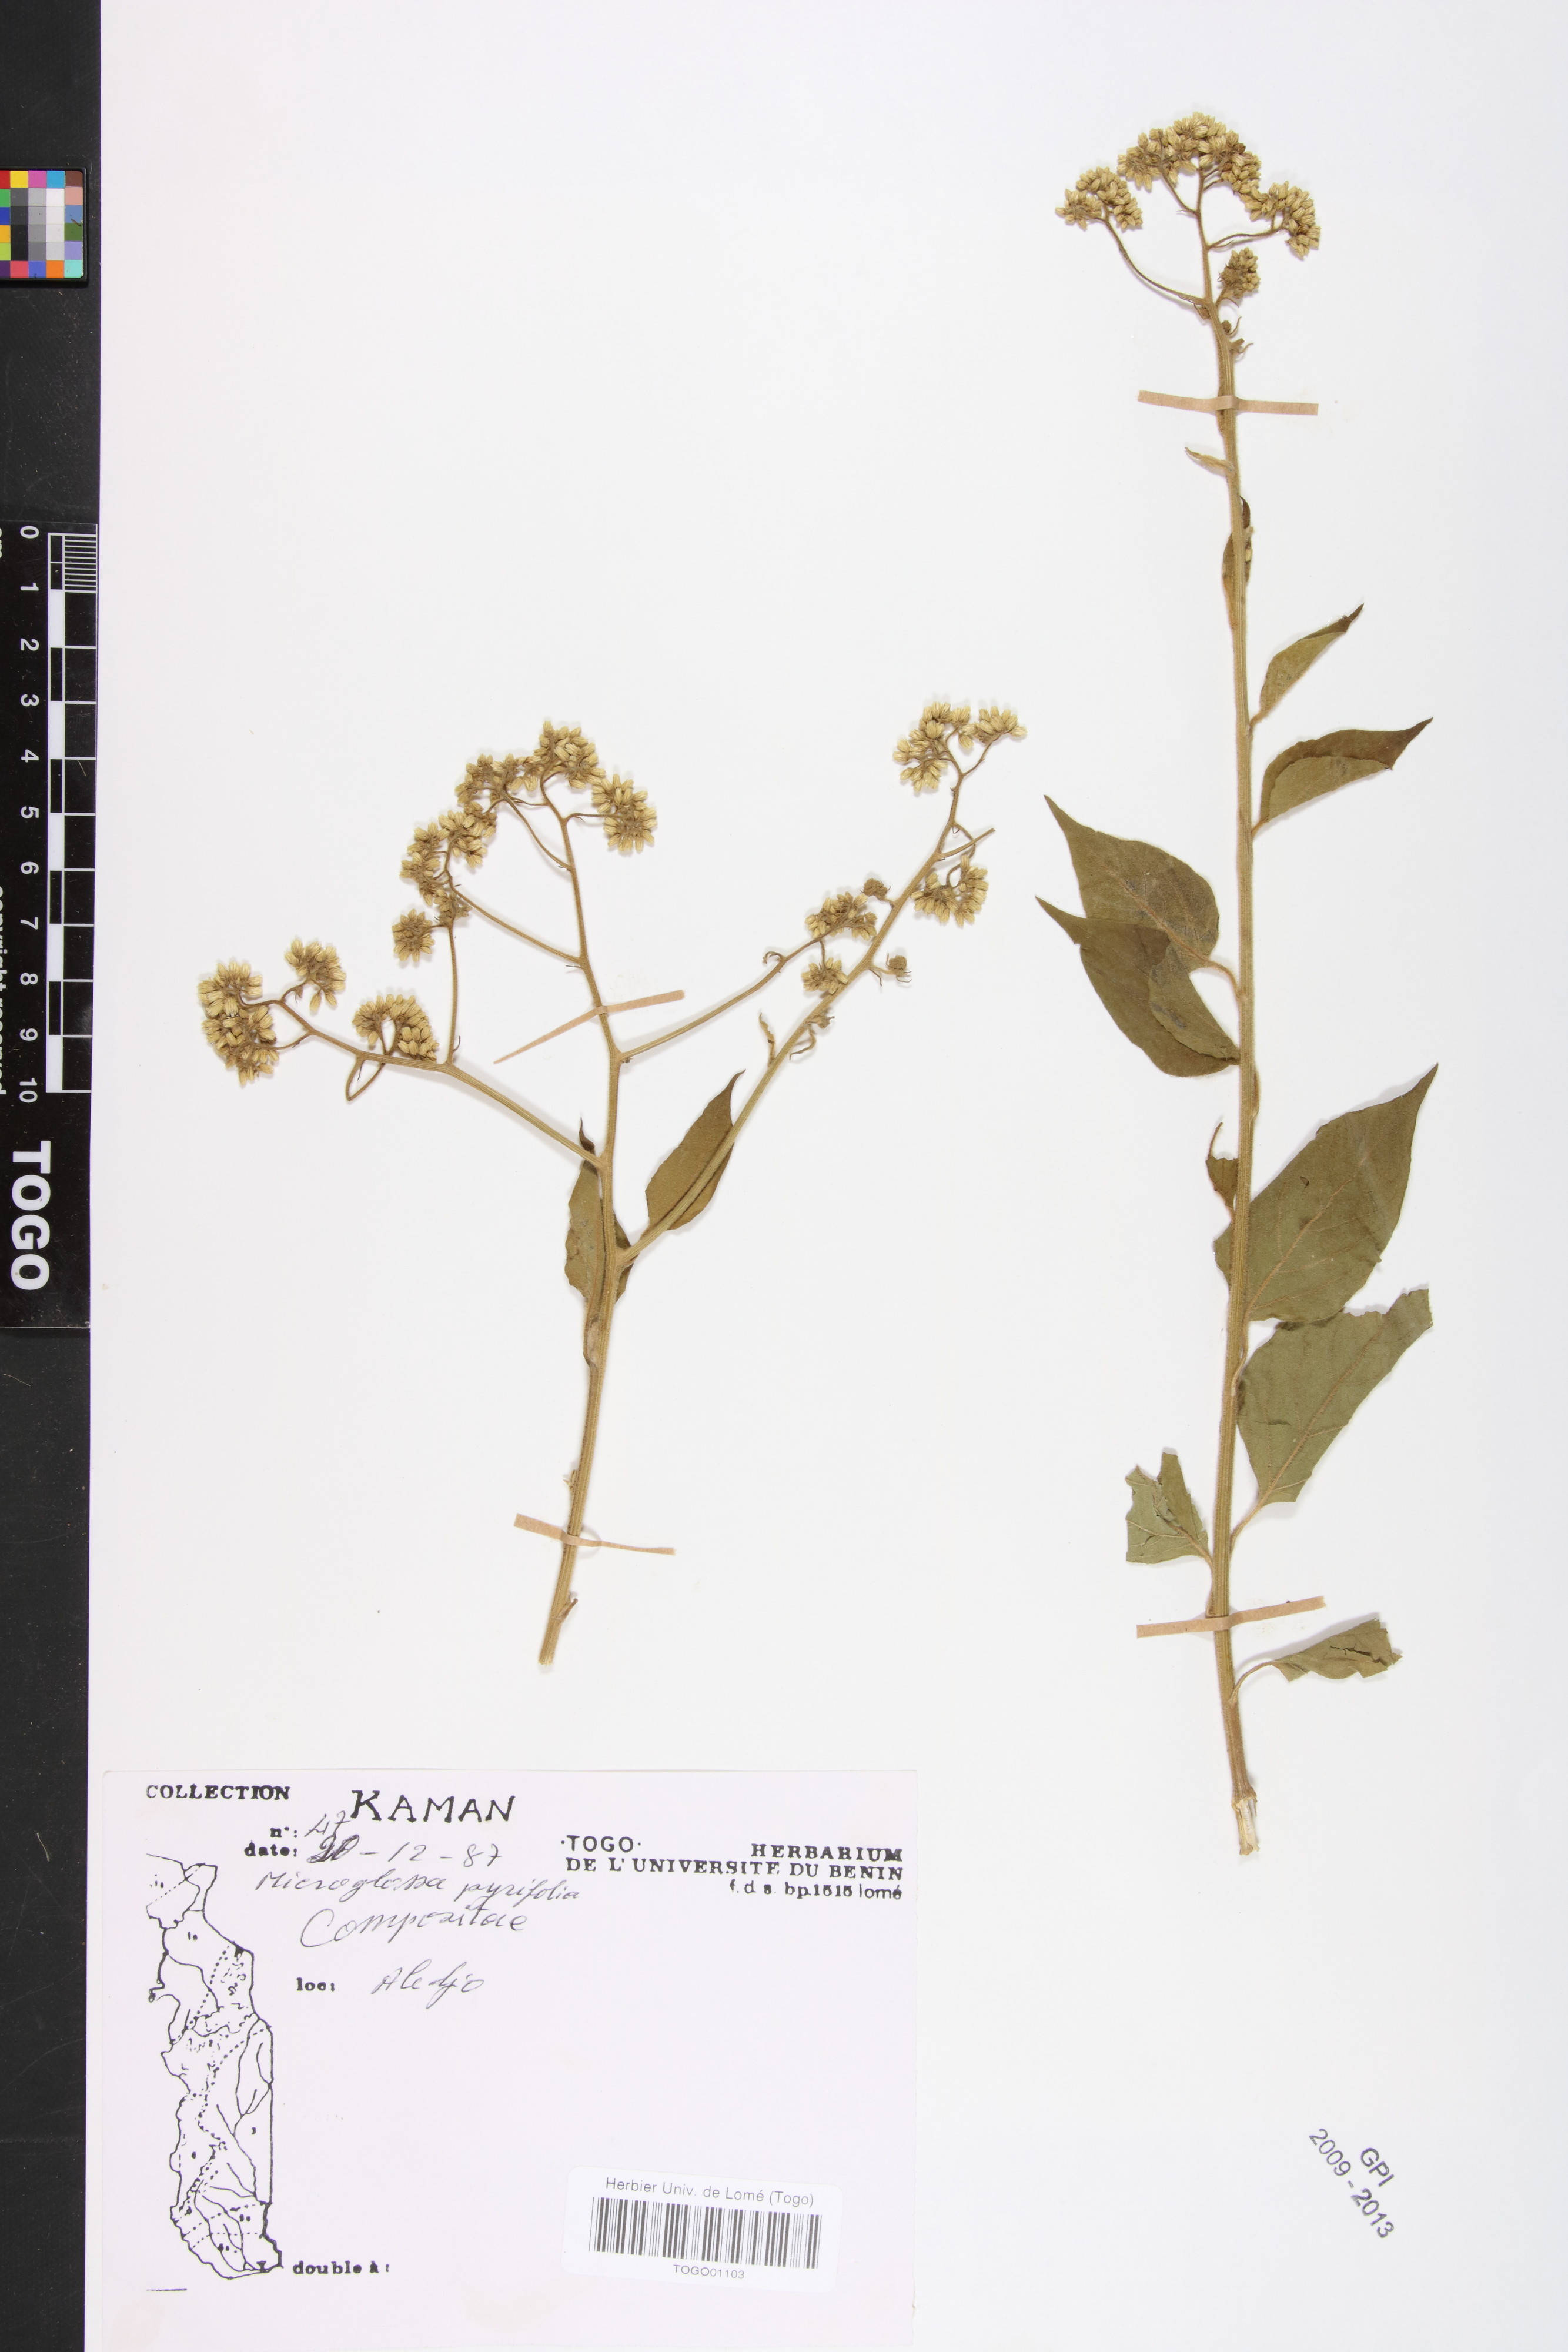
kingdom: Plantae
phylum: Tracheophyta
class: Magnoliopsida
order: Asterales
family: Asteraceae
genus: Microglossa
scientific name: Microglossa pyrifolia
